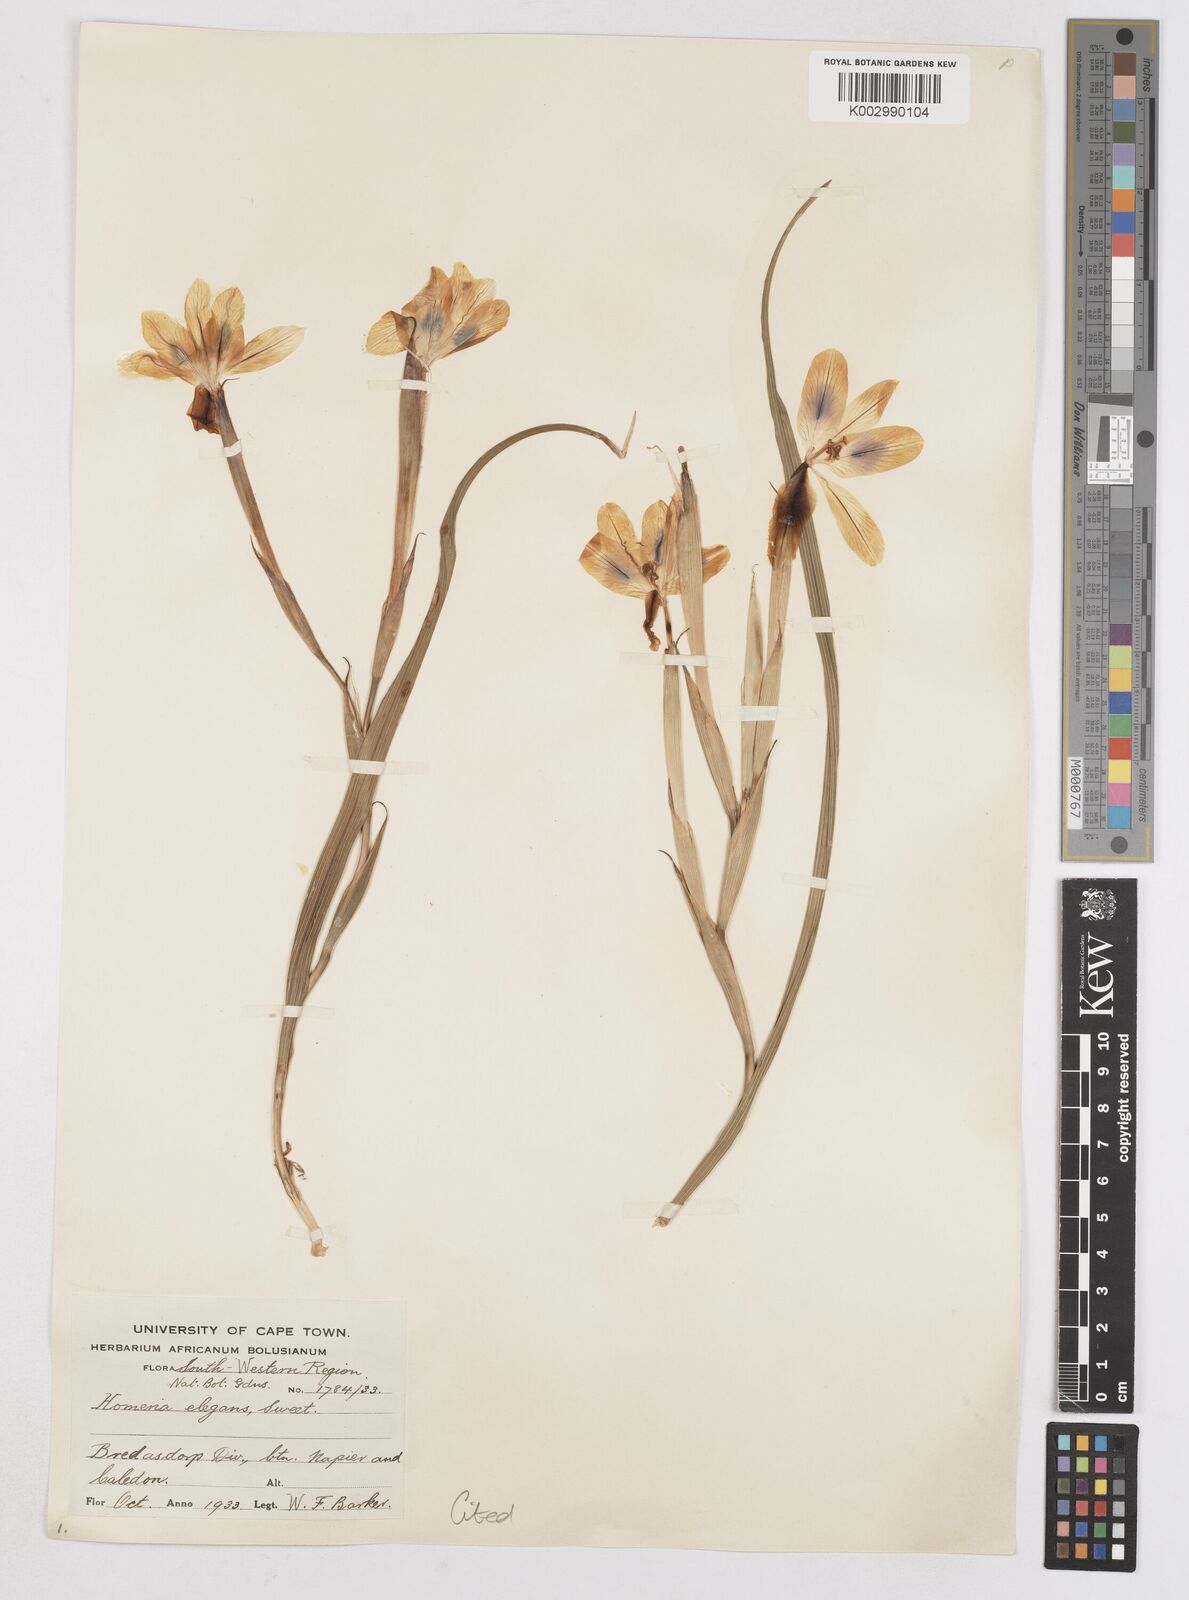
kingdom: Plantae
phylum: Tracheophyta
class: Liliopsida
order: Asparagales
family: Iridaceae
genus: Moraea
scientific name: Moraea elegans
